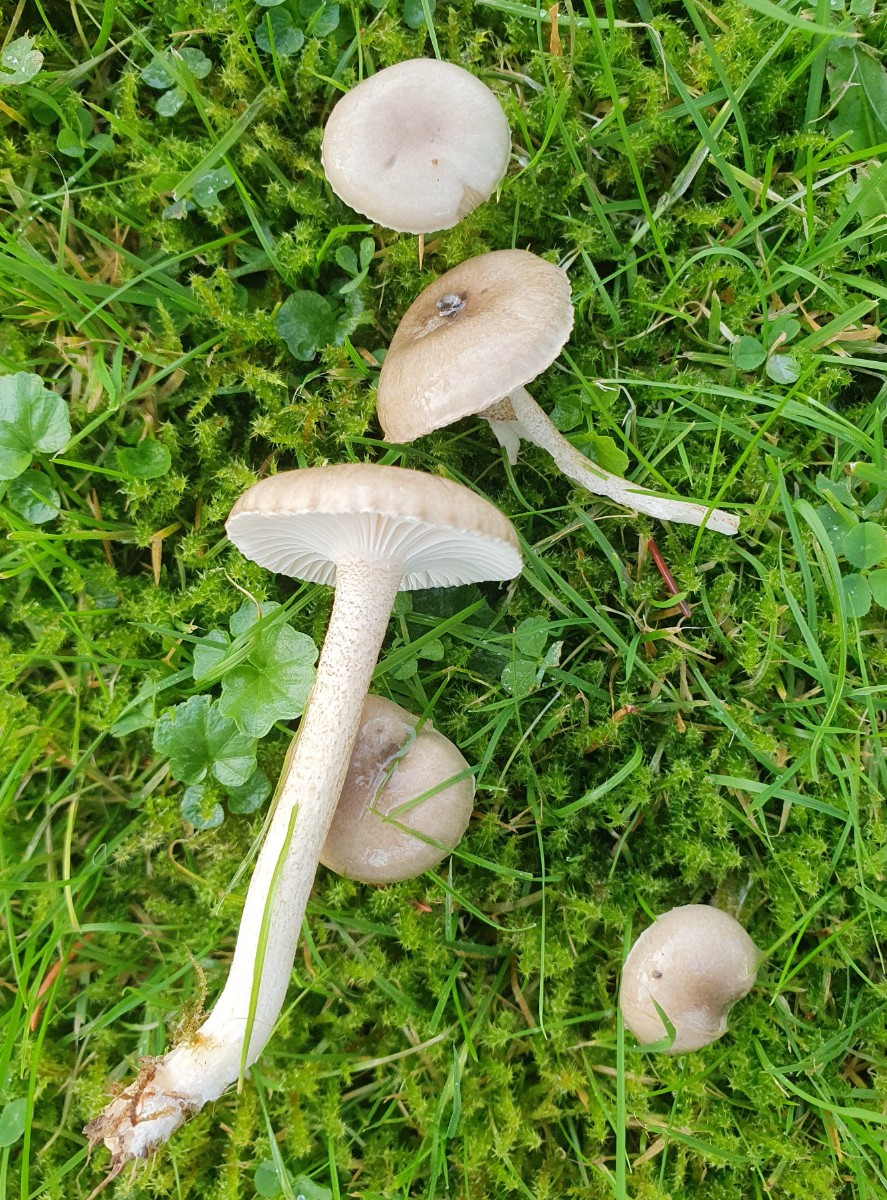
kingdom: Fungi
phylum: Basidiomycota
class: Agaricomycetes
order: Agaricales
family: Hygrophoraceae
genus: Hygrophorus
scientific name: Hygrophorus pustulatus
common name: mørkprikket sneglehat
